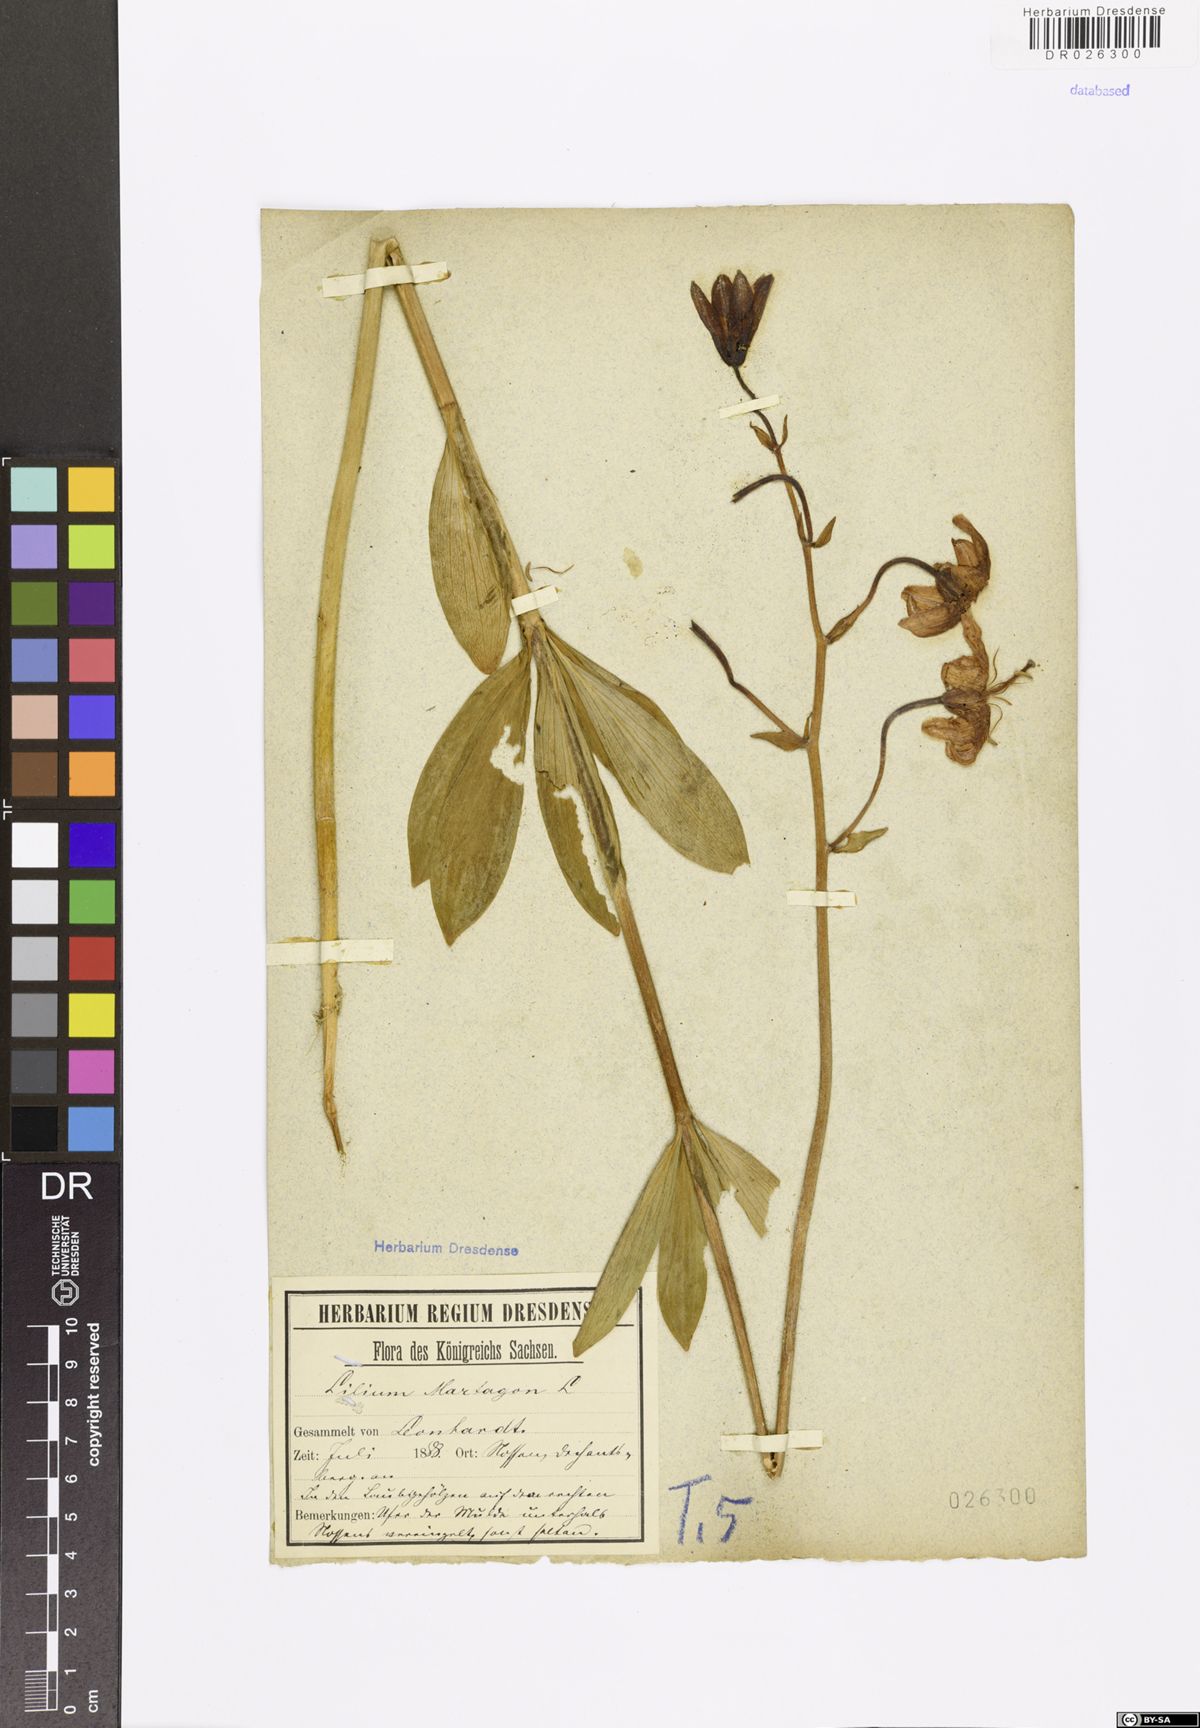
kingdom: Plantae
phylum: Tracheophyta
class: Liliopsida
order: Liliales
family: Liliaceae
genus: Lilium
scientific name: Lilium martagon
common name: Martagon lily
